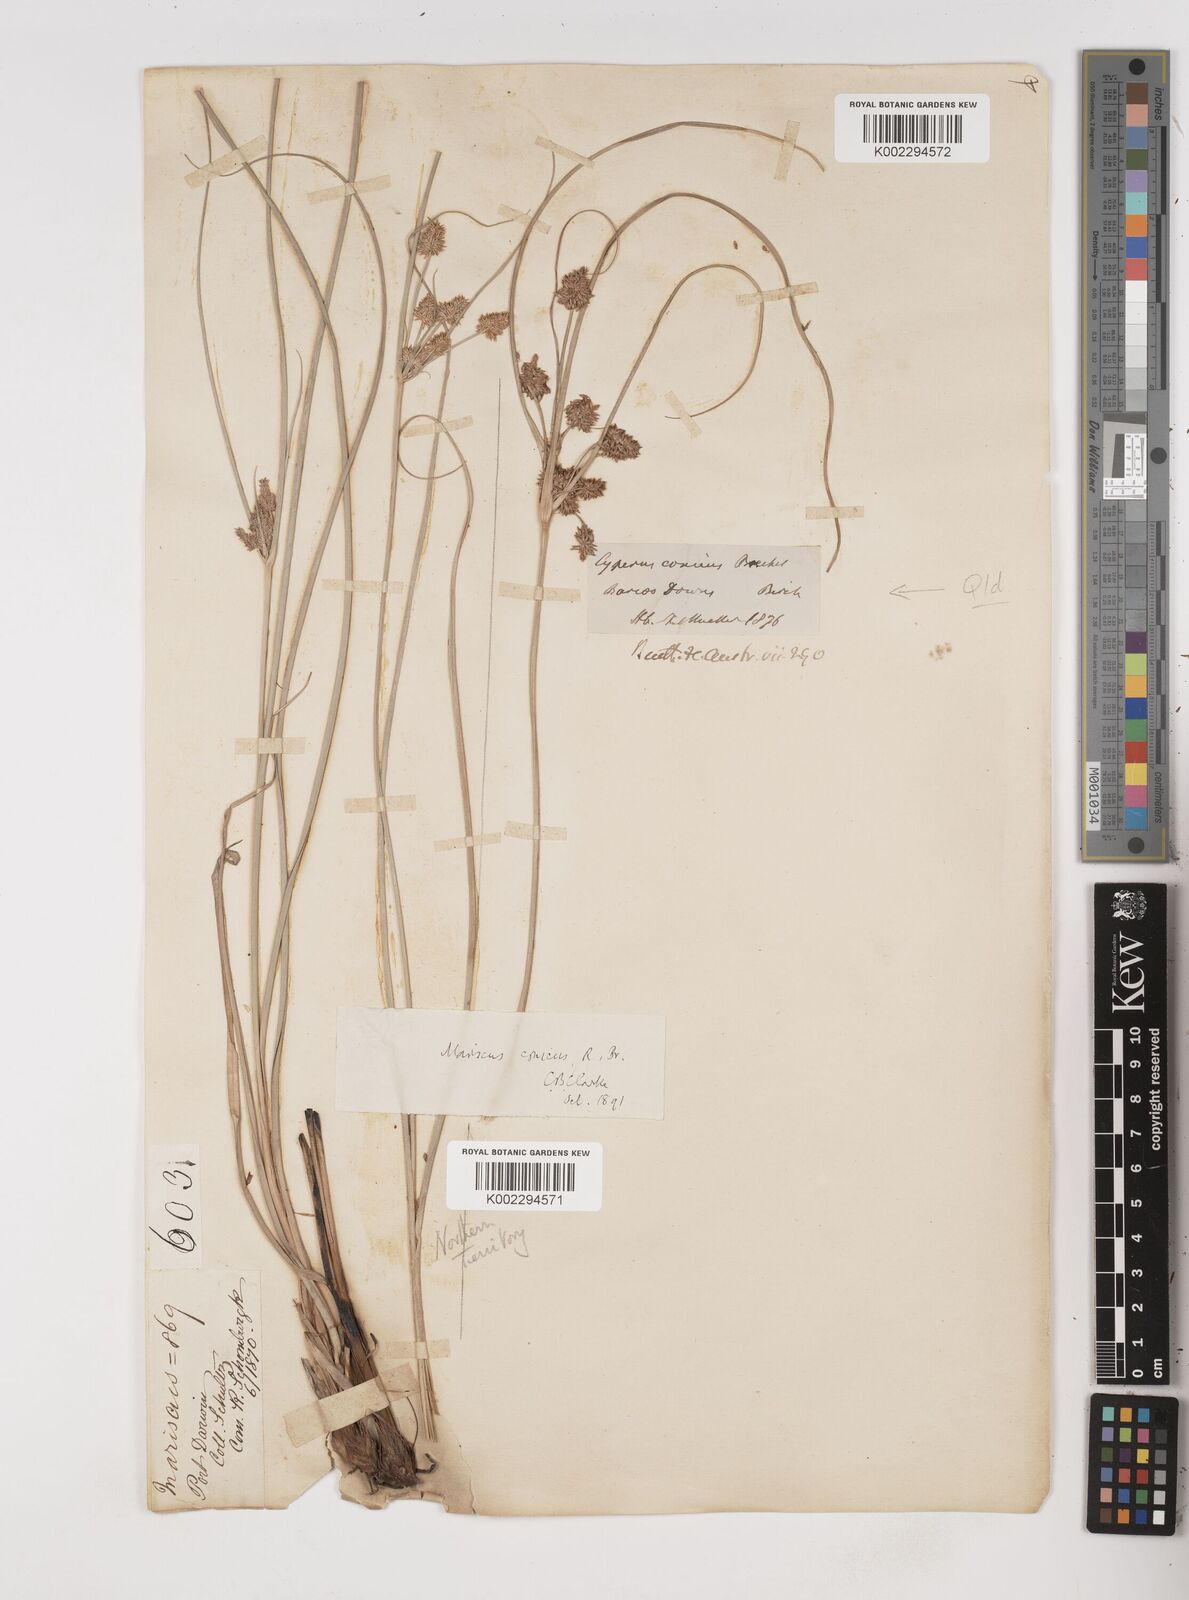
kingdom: Plantae
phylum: Tracheophyta
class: Liliopsida
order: Poales
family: Cyperaceae
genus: Cyperus
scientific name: Cyperus conicus
